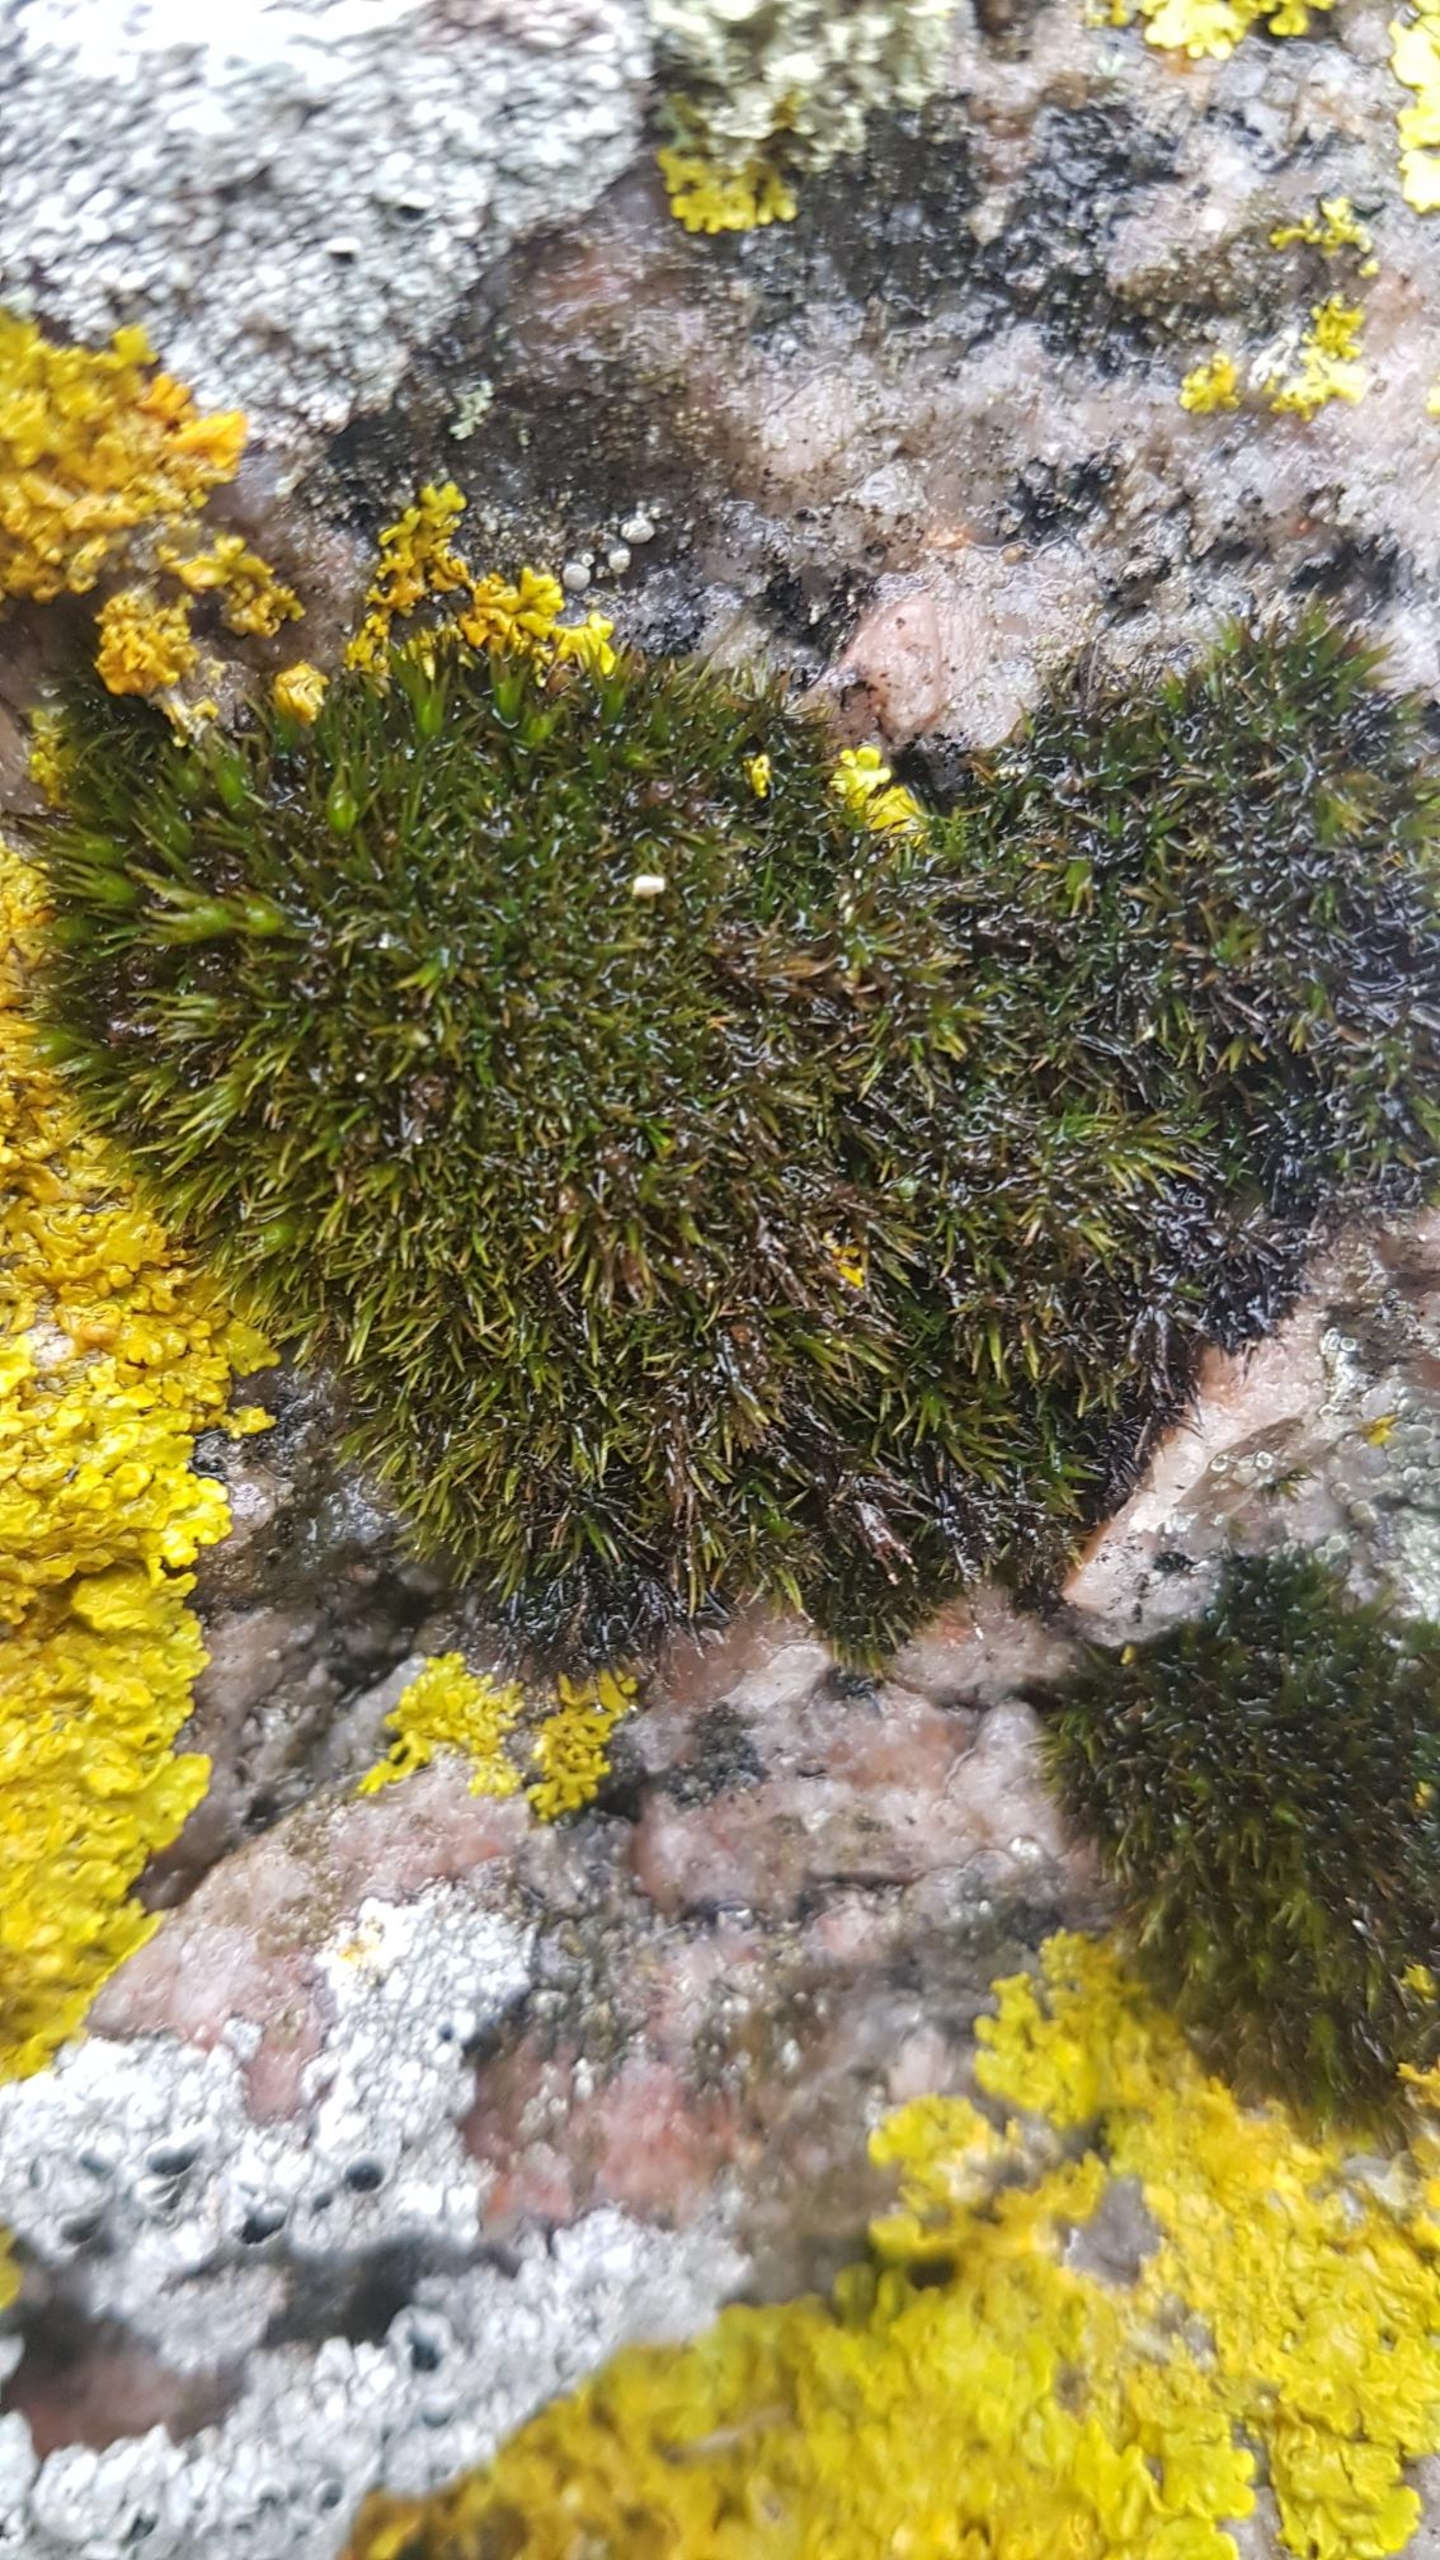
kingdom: Plantae
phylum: Bryophyta
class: Bryopsida
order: Grimmiales
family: Grimmiaceae
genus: Schistidium
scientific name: Schistidium maritimum
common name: Strand-strålekransmos
